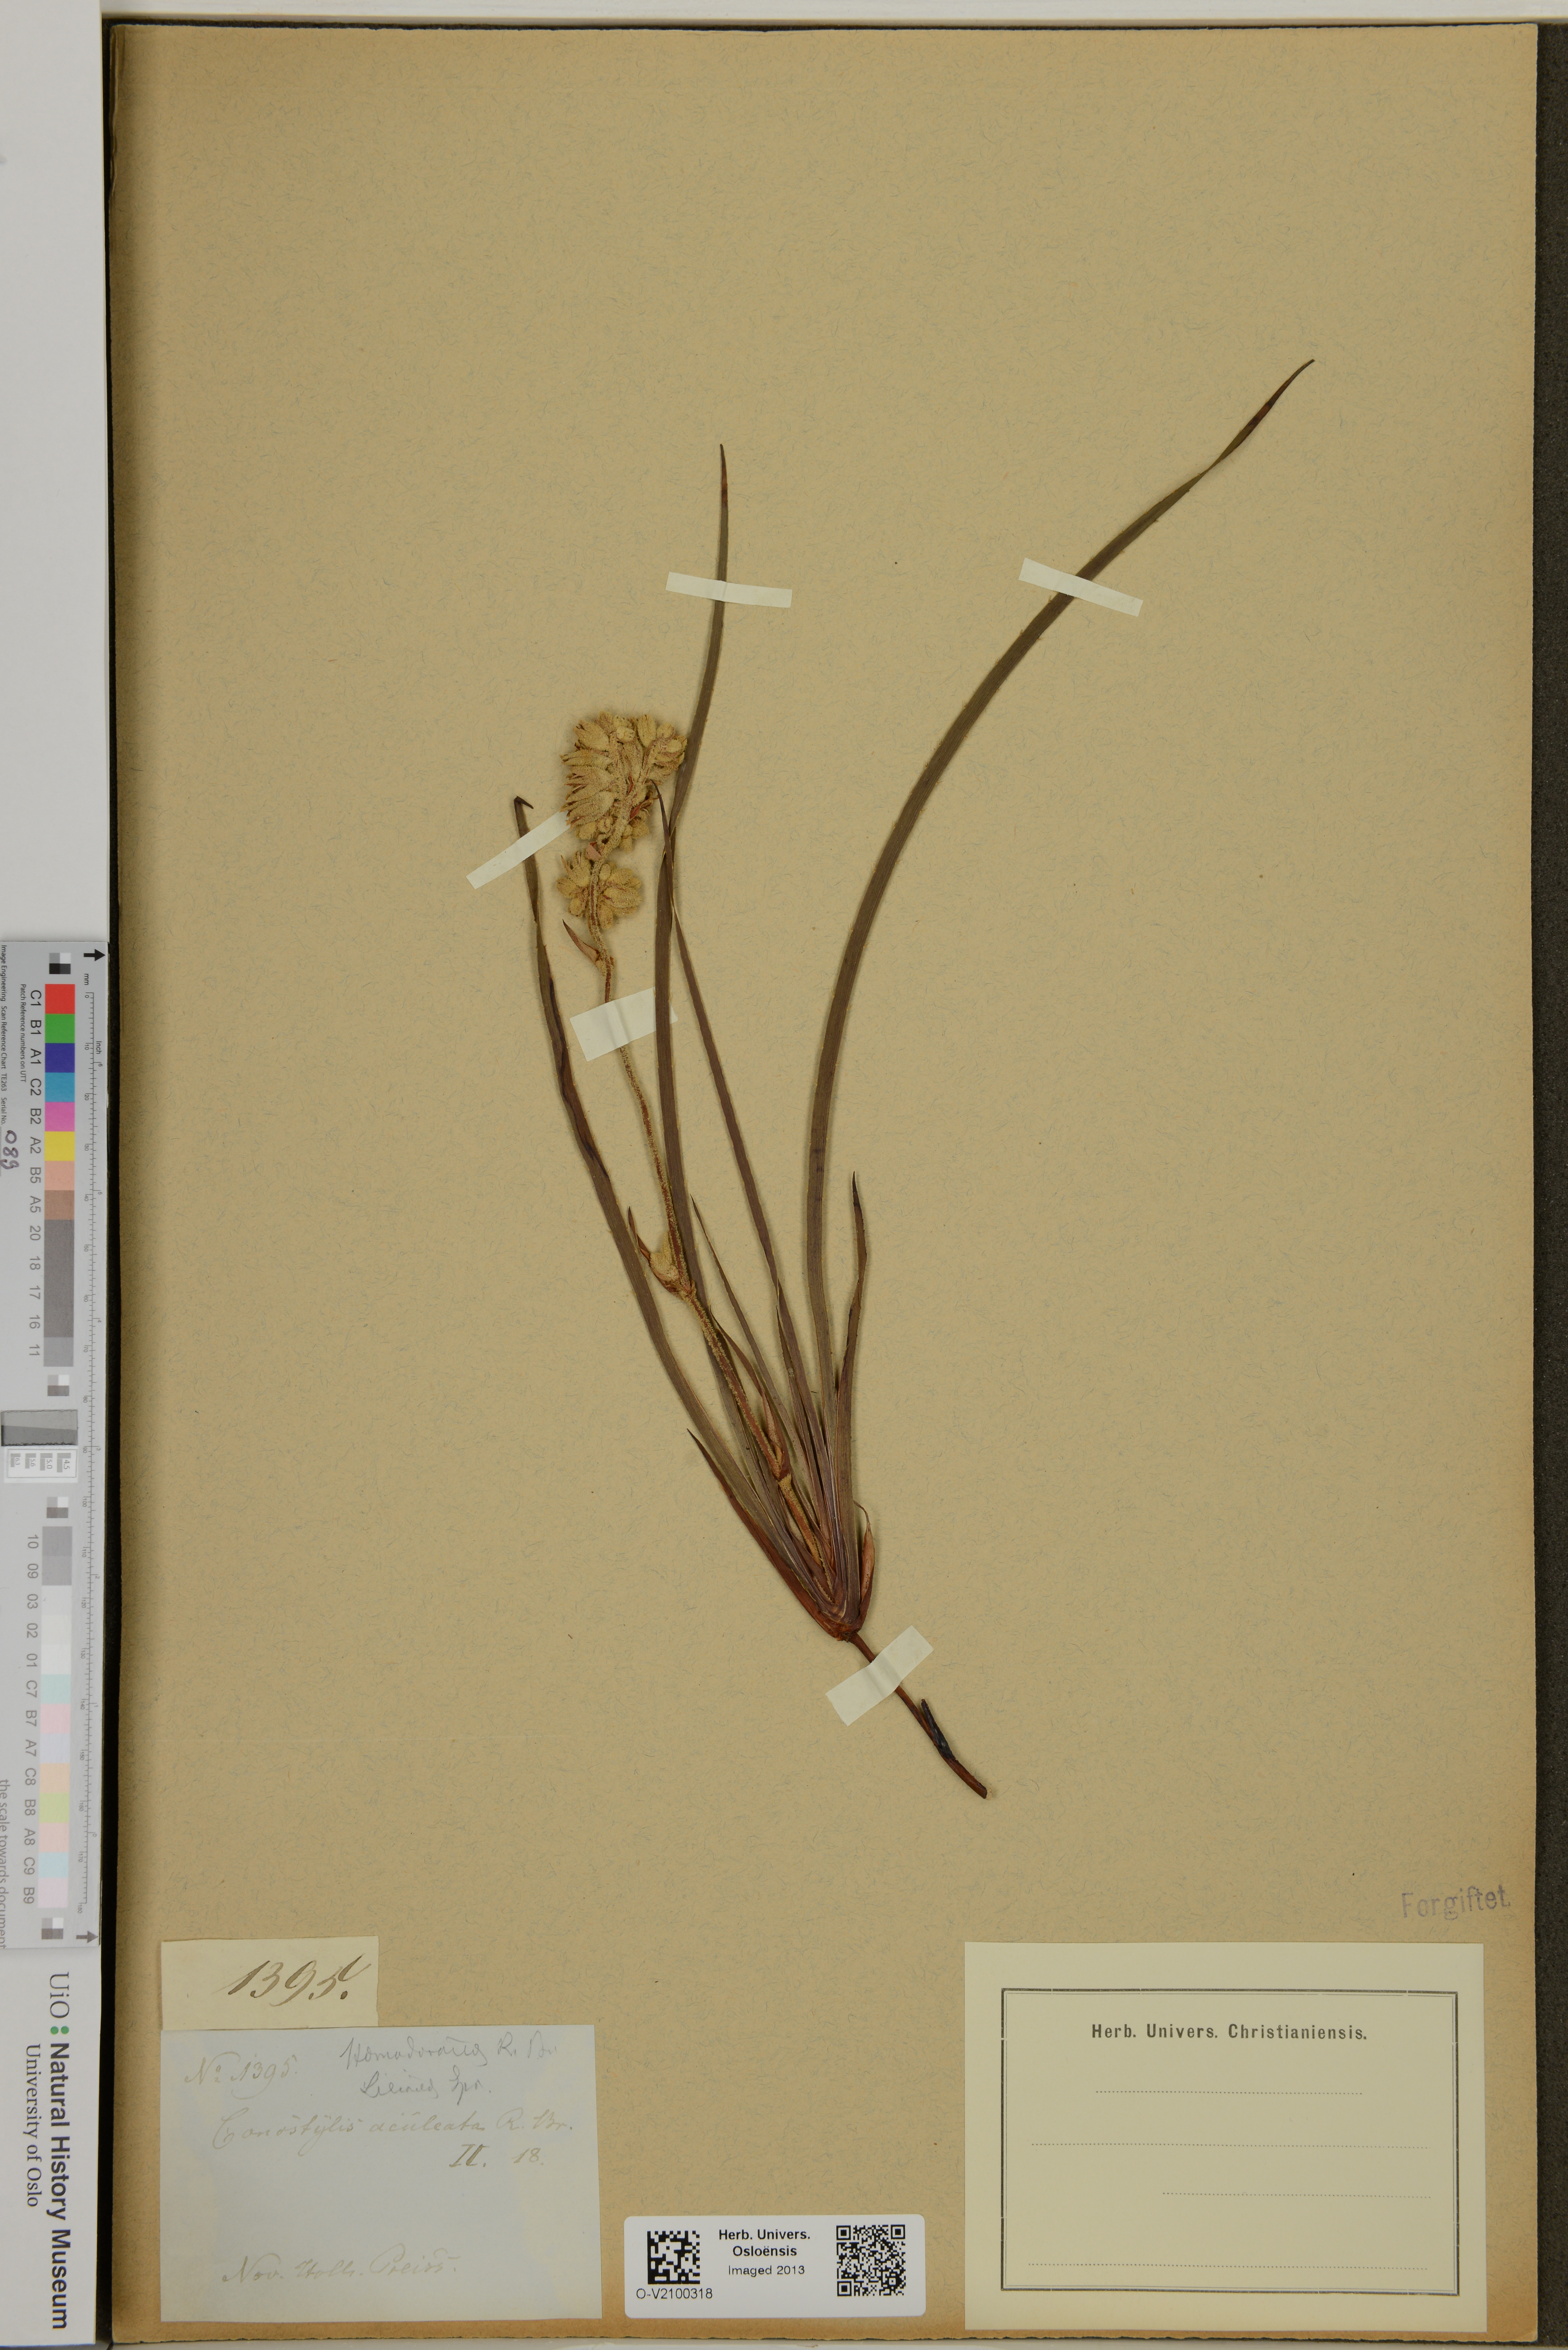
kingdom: Plantae
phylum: Tracheophyta
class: Liliopsida
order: Commelinales
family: Haemodoraceae
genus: Conostylis
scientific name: Conostylis aculeata
